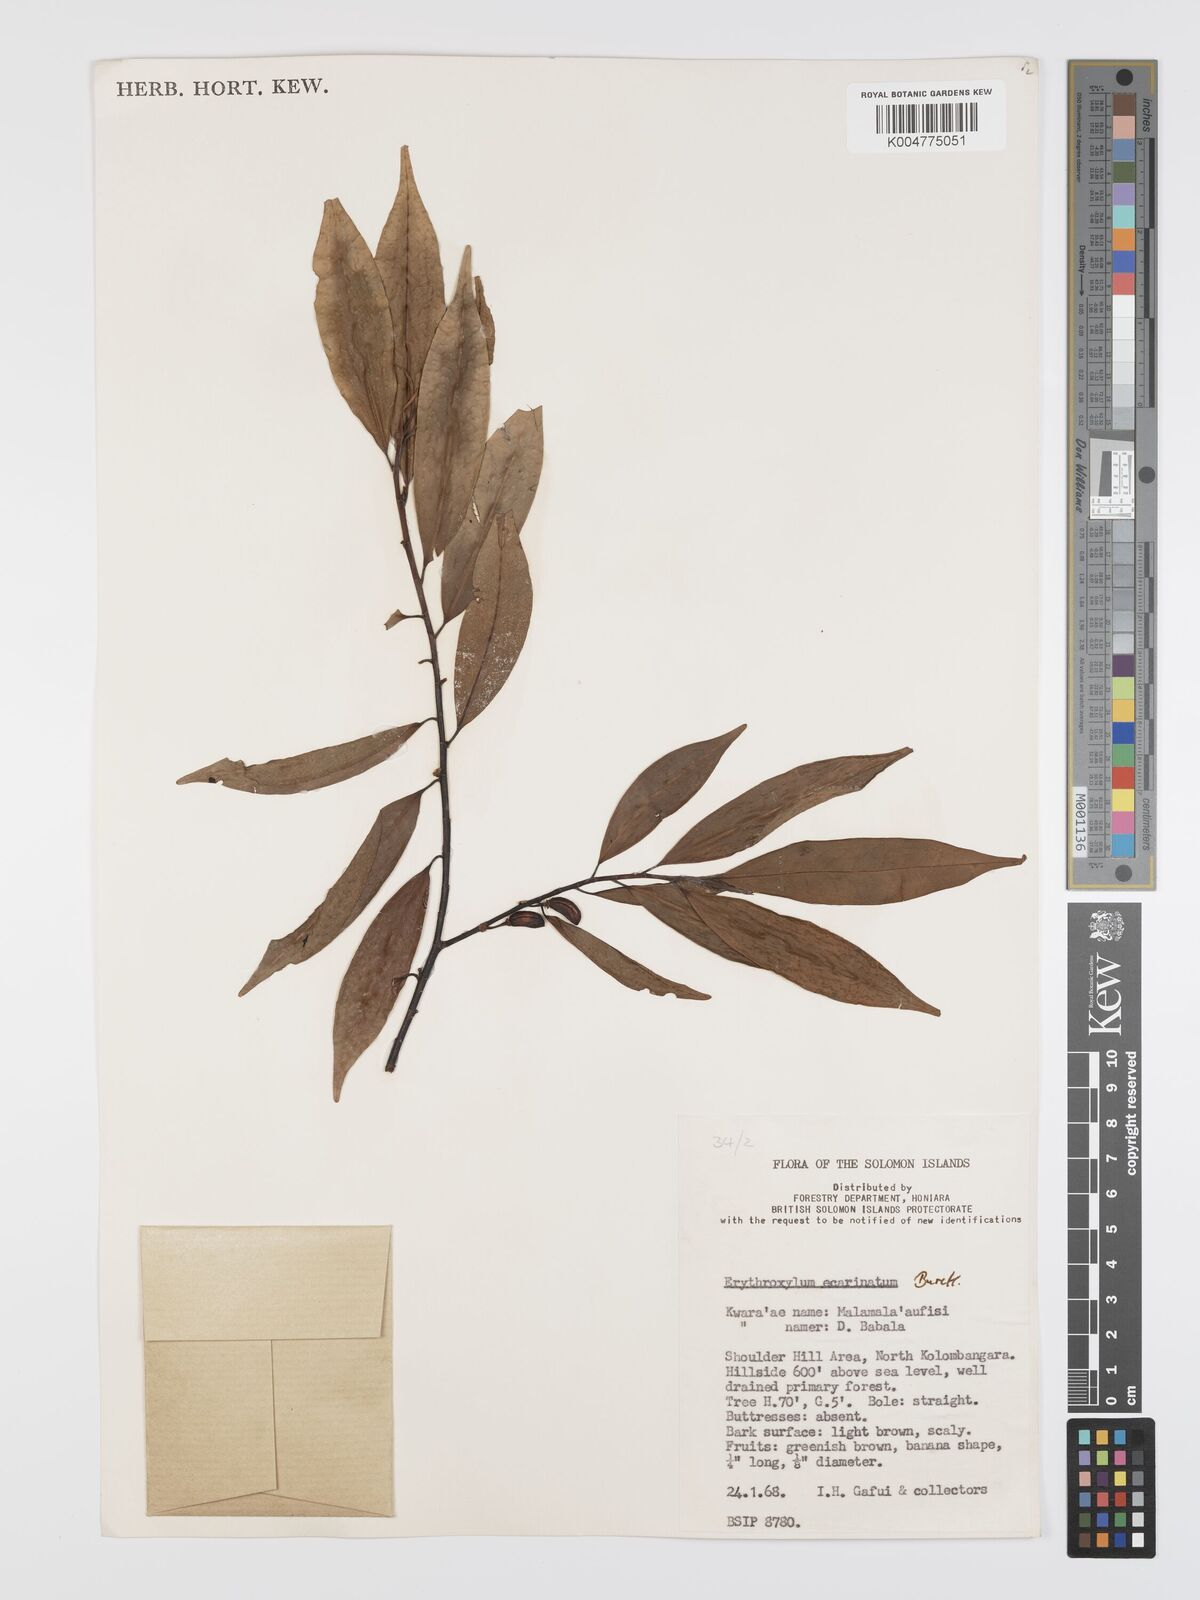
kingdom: Plantae
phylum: Tracheophyta
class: Magnoliopsida
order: Malpighiales
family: Erythroxylaceae
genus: Erythroxylum
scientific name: Erythroxylum ecarinatum
